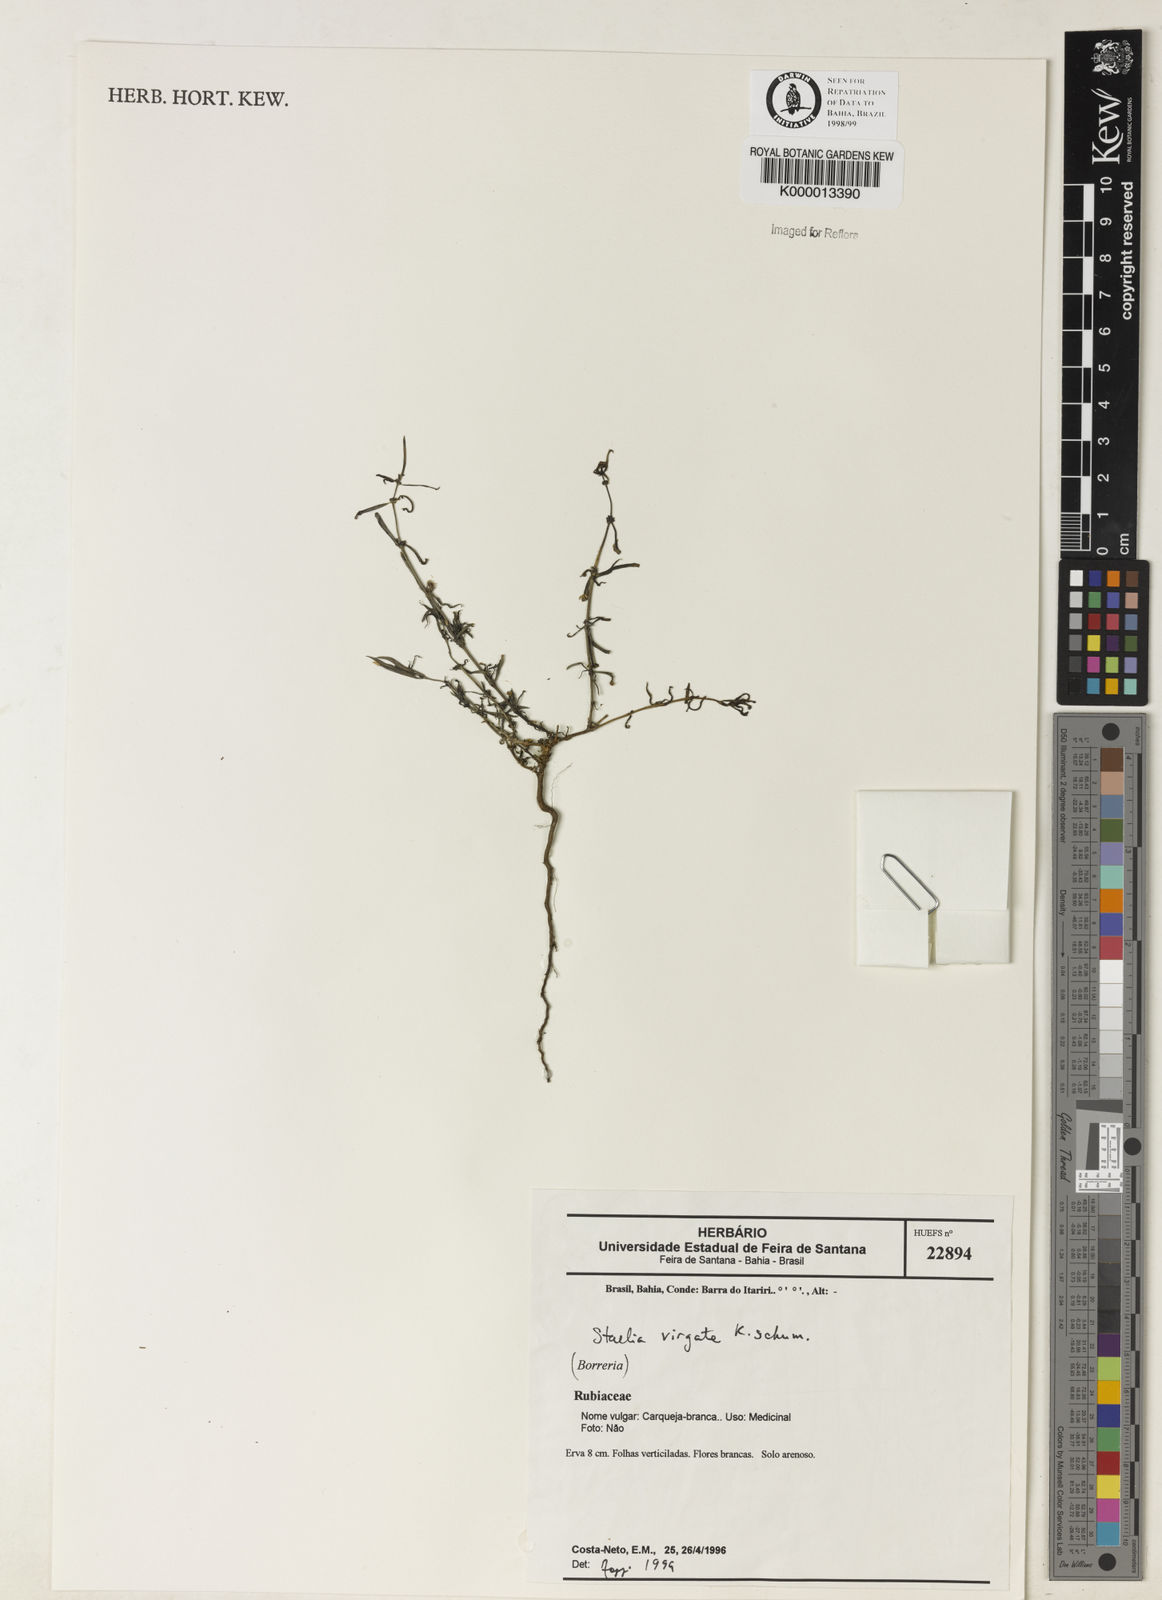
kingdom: Plantae
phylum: Tracheophyta
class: Magnoliopsida
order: Gentianales
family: Rubiaceae
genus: Staelia
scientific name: Staelia virgata
